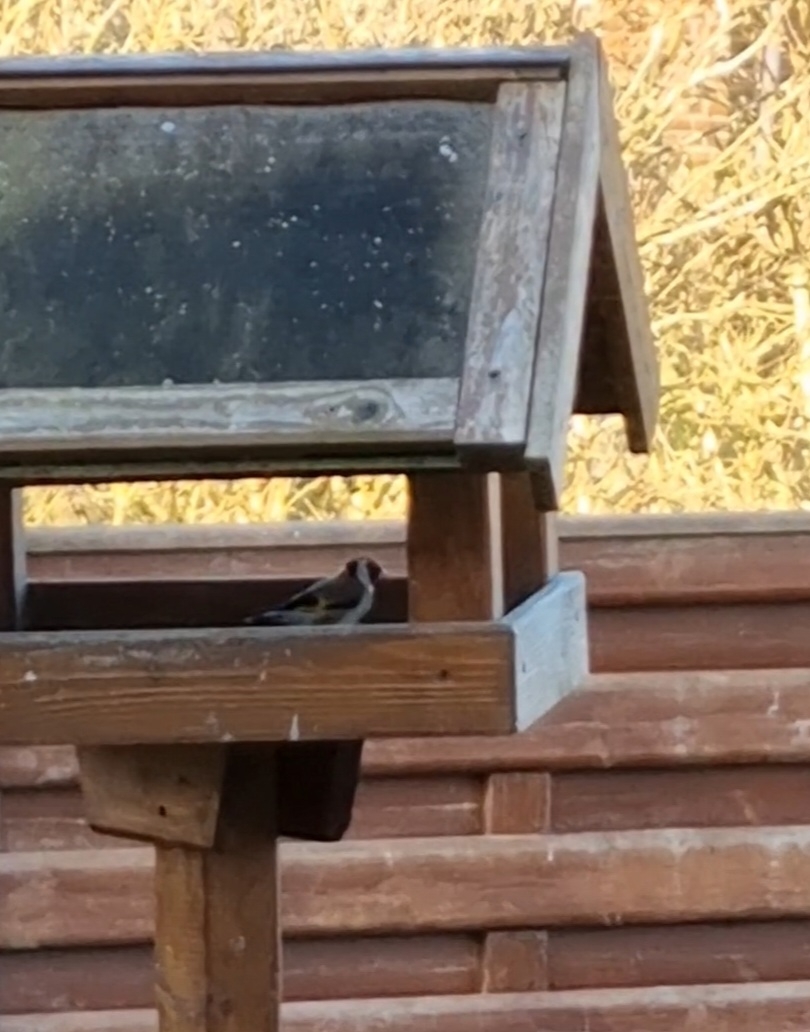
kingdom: Animalia
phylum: Chordata
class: Aves
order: Passeriformes
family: Fringillidae
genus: Carduelis
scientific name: Carduelis carduelis
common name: Stillits
